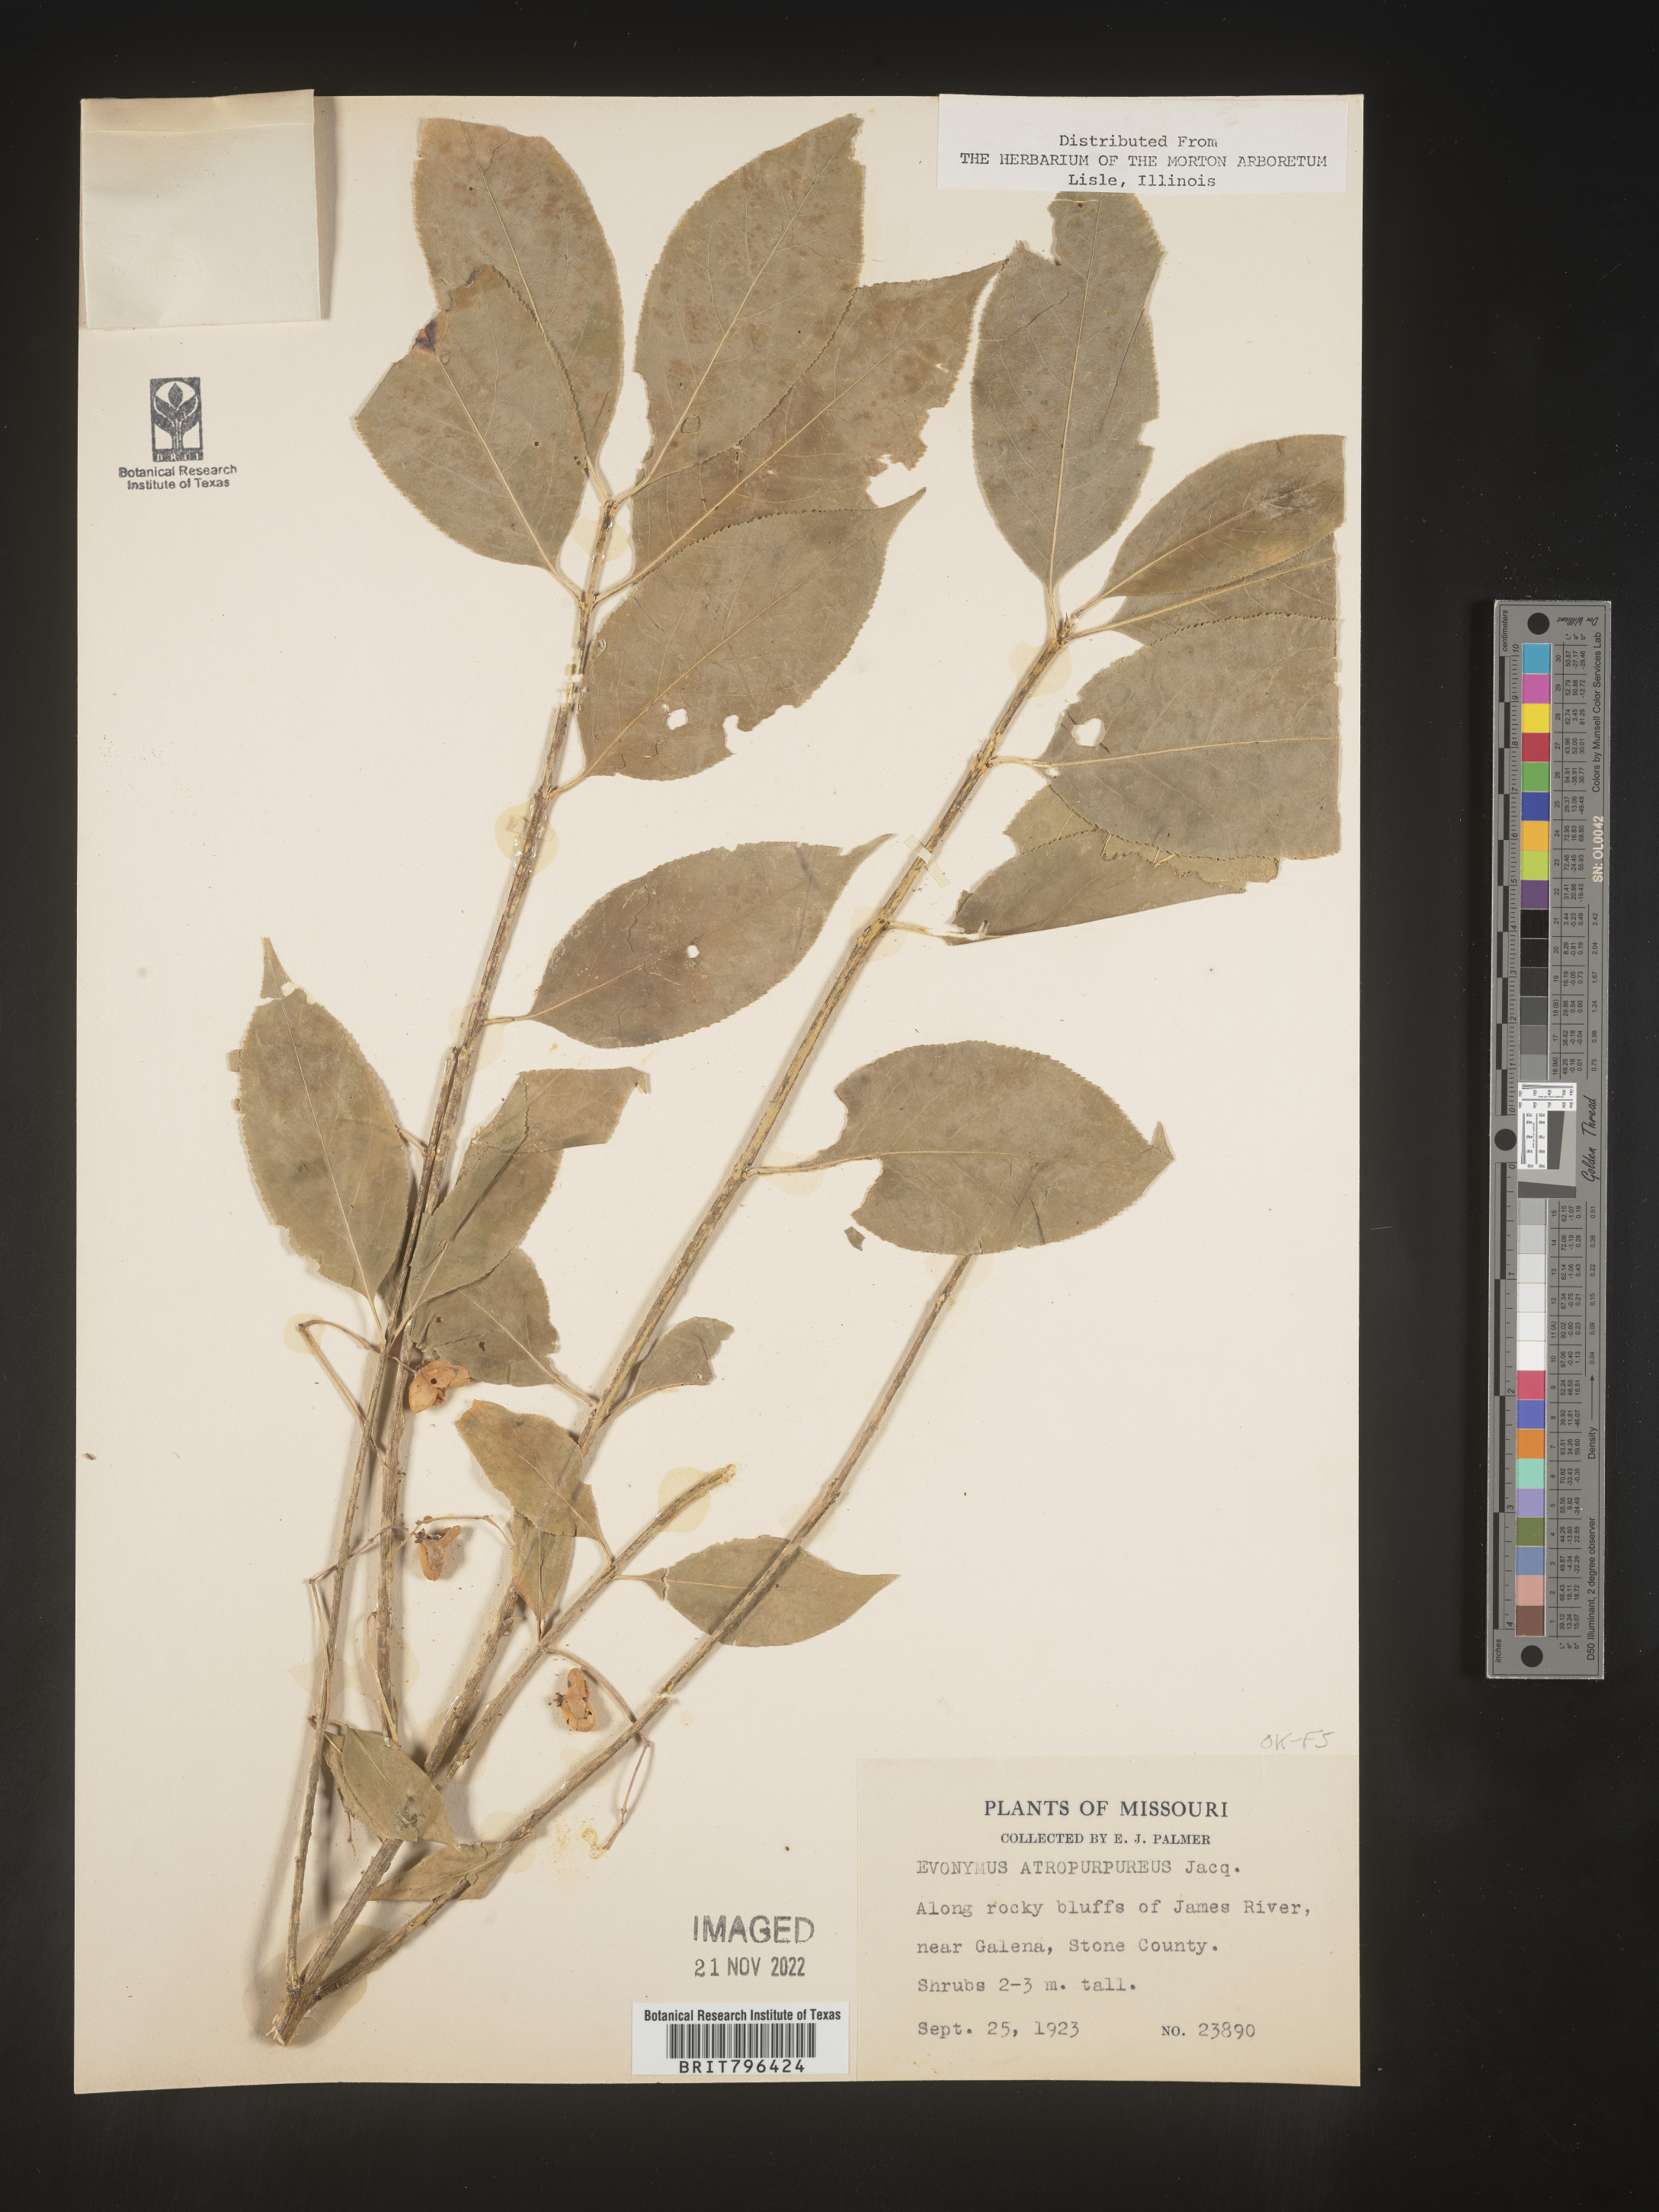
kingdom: Plantae
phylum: Tracheophyta
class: Magnoliopsida
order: Celastrales
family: Celastraceae
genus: Euonymus
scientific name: Euonymus atropurpureus
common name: Eastern wahoo
